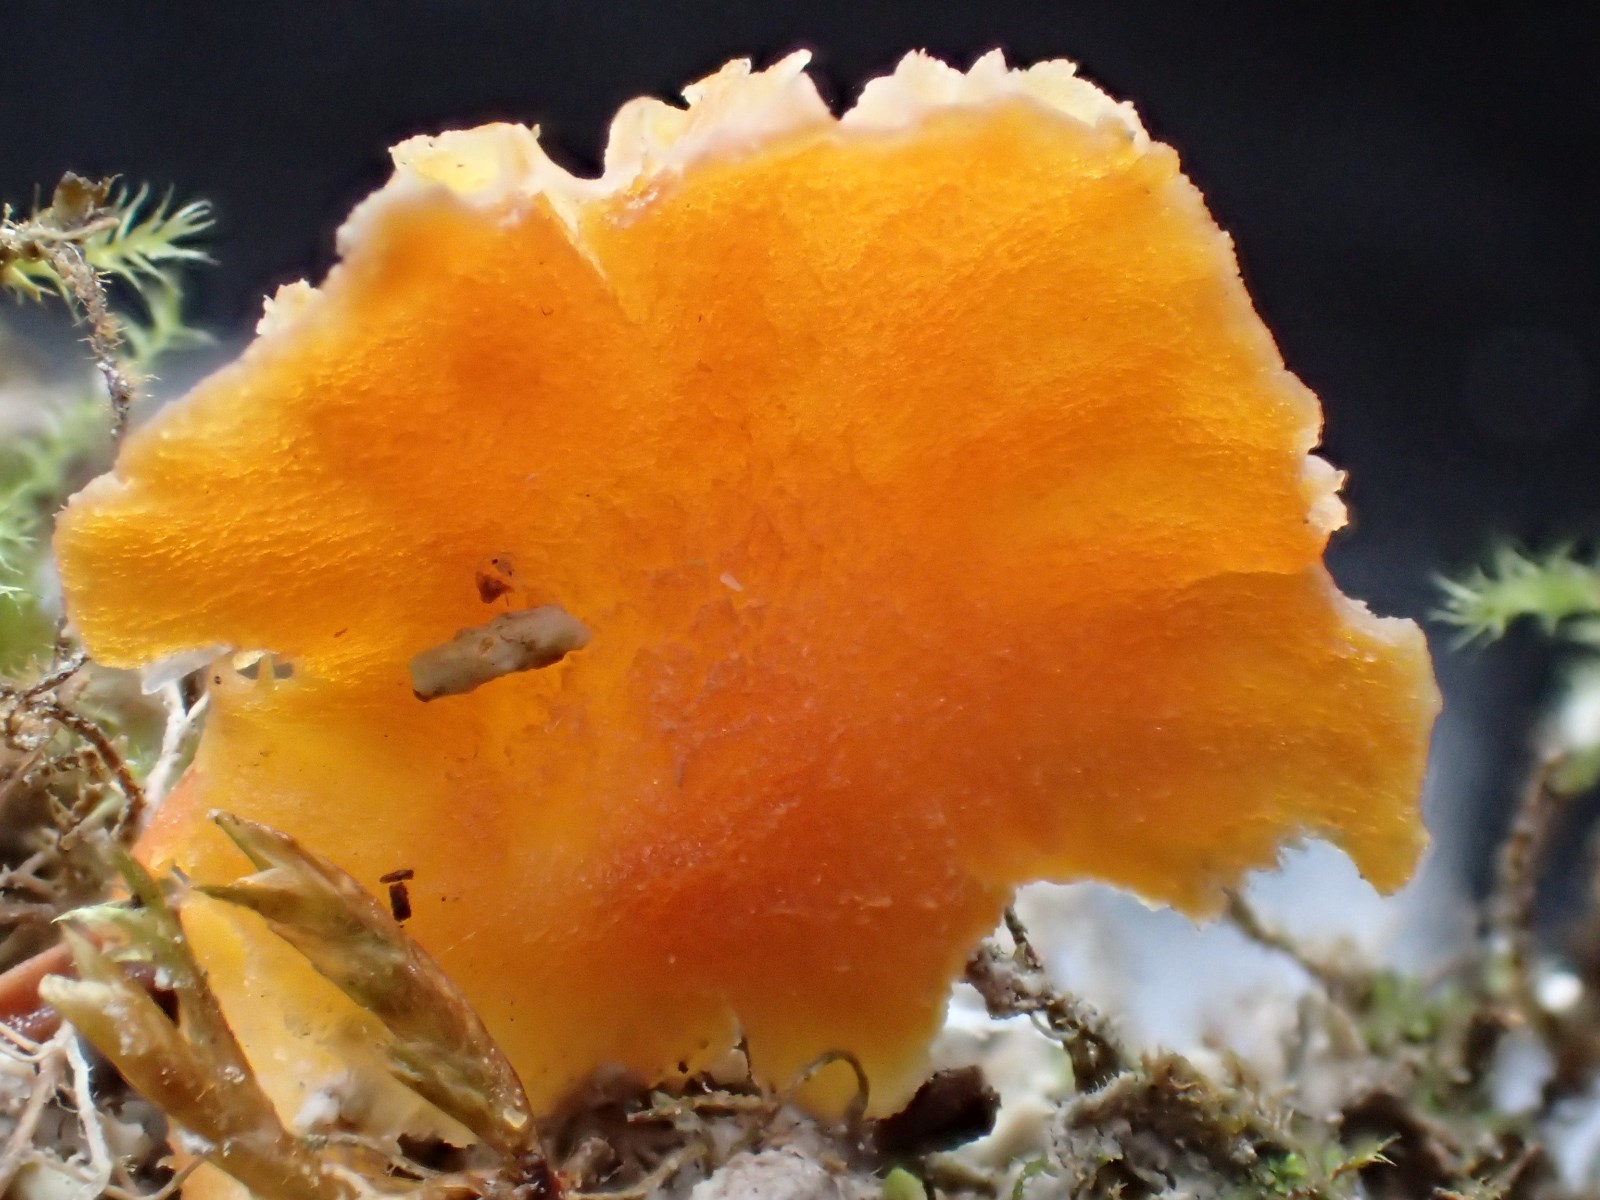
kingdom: Fungi
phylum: Basidiomycota
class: Agaricomycetes
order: Agaricales
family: Hygrophoraceae
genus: Hygrocybe
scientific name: Hygrocybe calciphila
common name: kalk-vokshat
